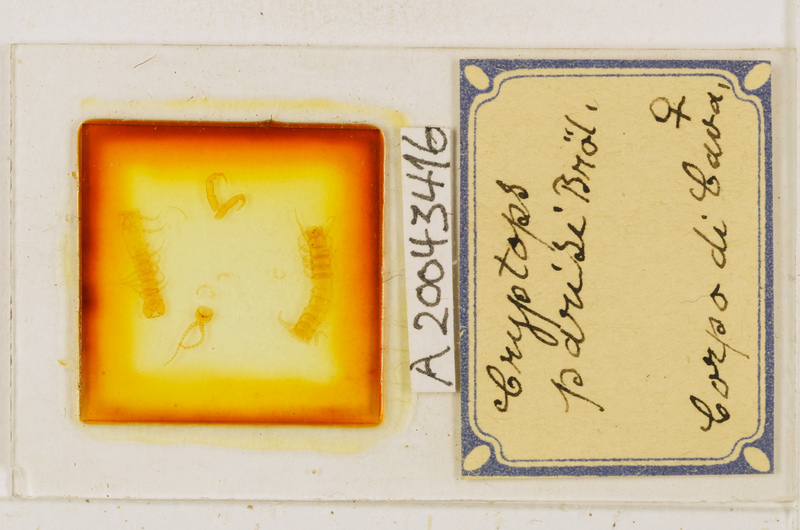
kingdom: Animalia
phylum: Arthropoda
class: Chilopoda
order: Scolopendromorpha
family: Cryptopidae
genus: Cryptops
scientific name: Cryptops parisi
